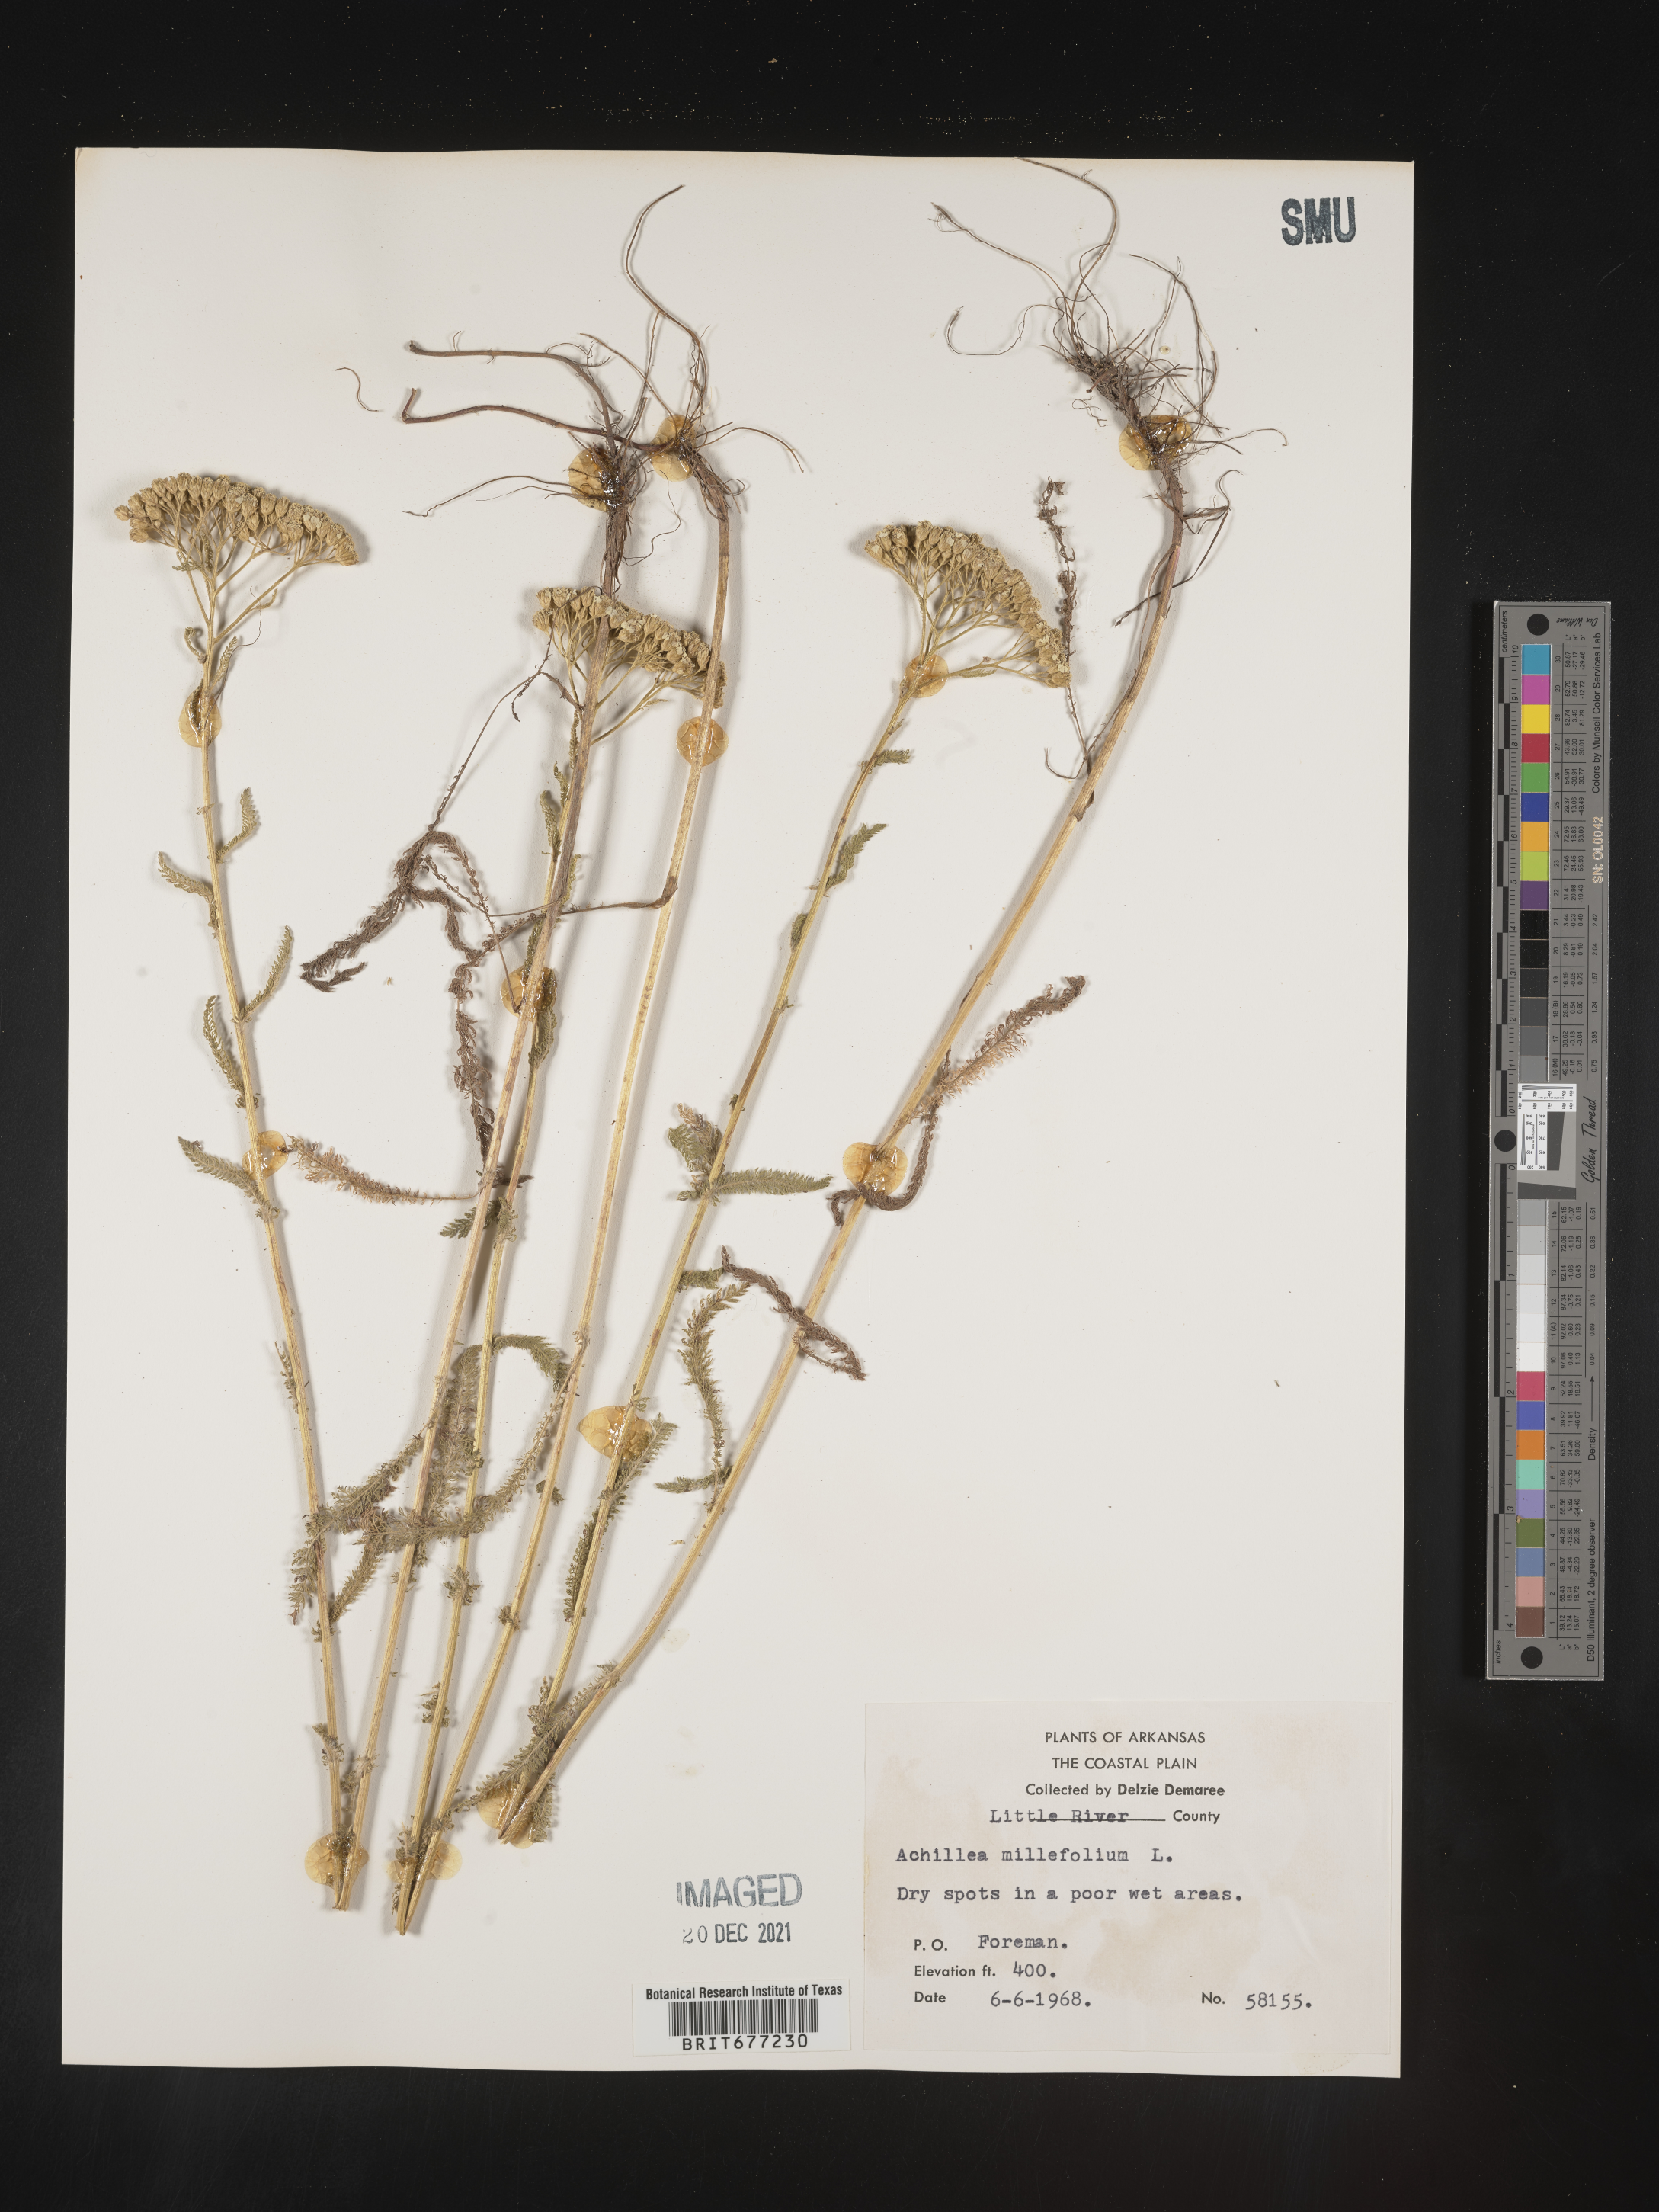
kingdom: Plantae
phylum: Tracheophyta
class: Magnoliopsida
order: Asterales
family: Asteraceae
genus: Achillea
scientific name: Achillea millefolium
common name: Yarrow
